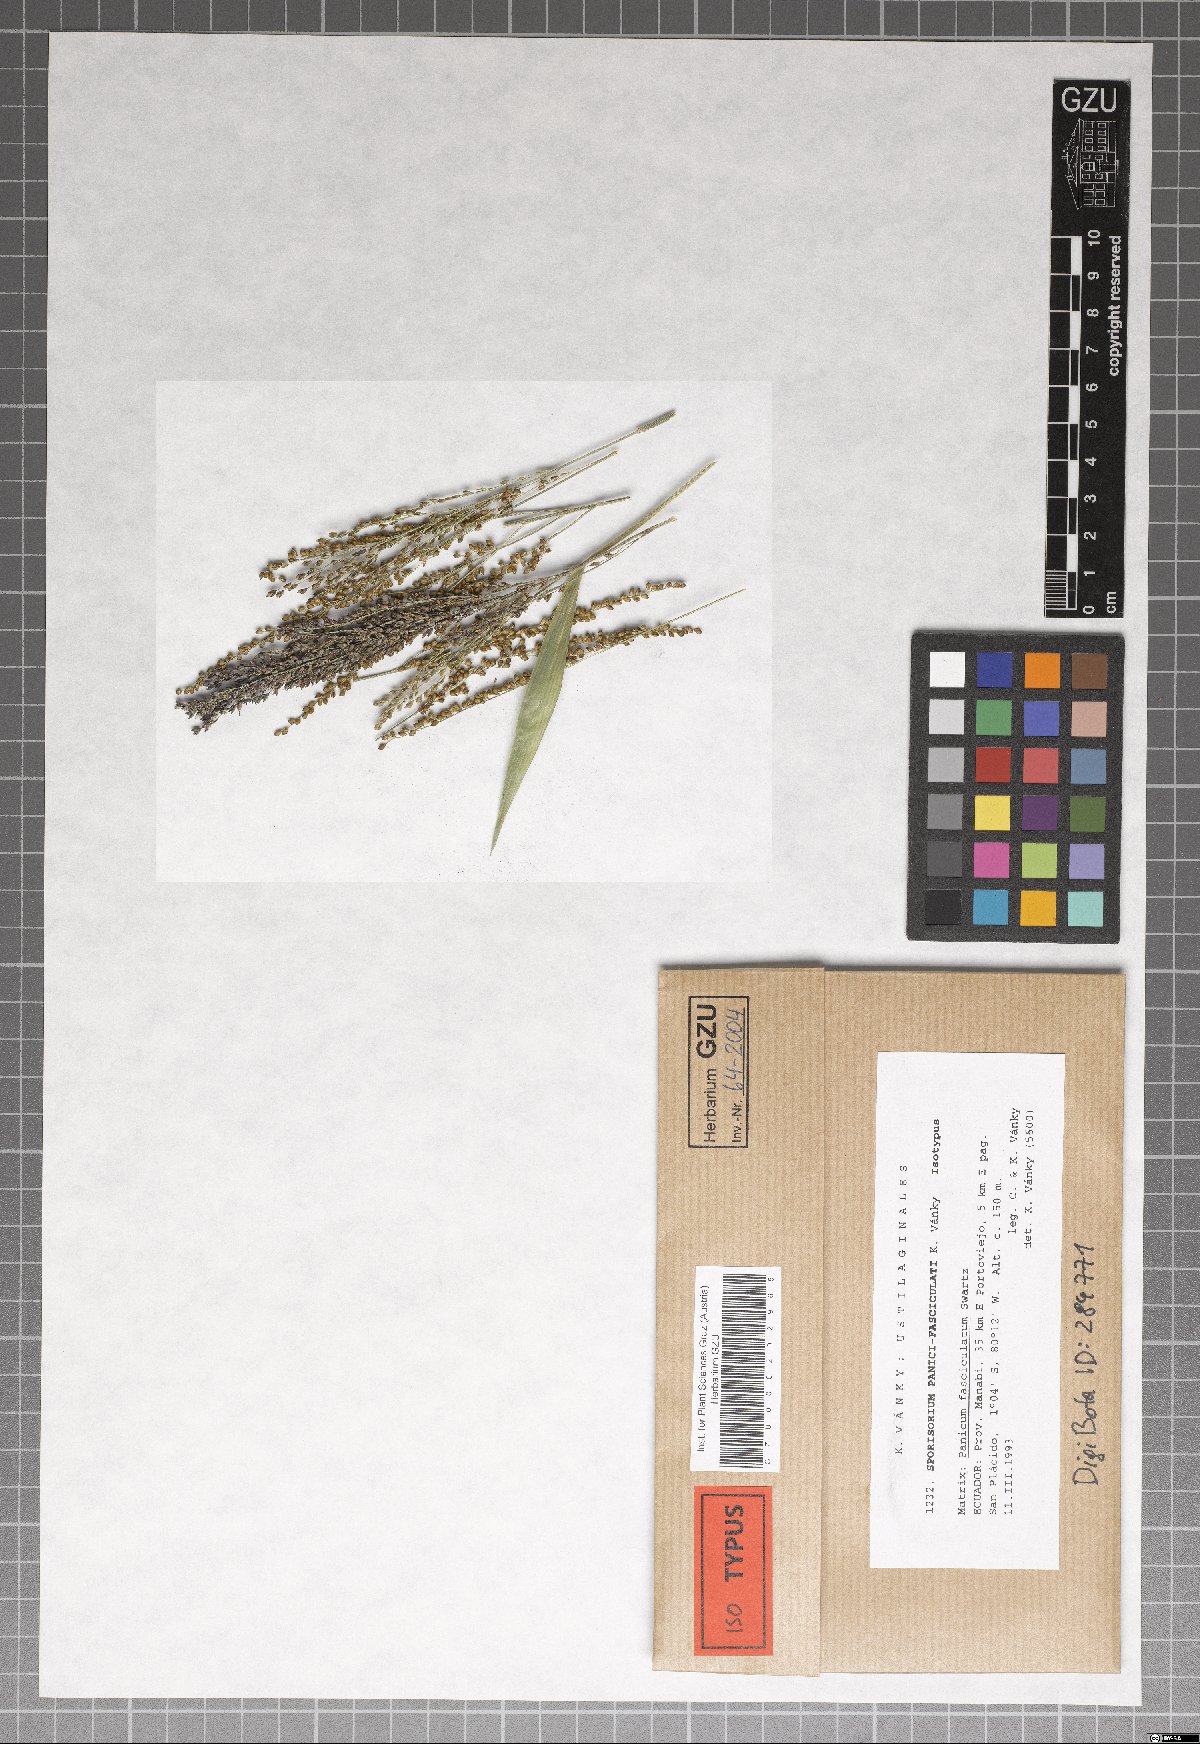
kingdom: Fungi
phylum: Basidiomycota
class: Ustilaginomycetes
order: Ustilaginales
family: Ustilaginaceae
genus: Anthracocystis
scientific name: Anthracocystis panici-fasciculati
